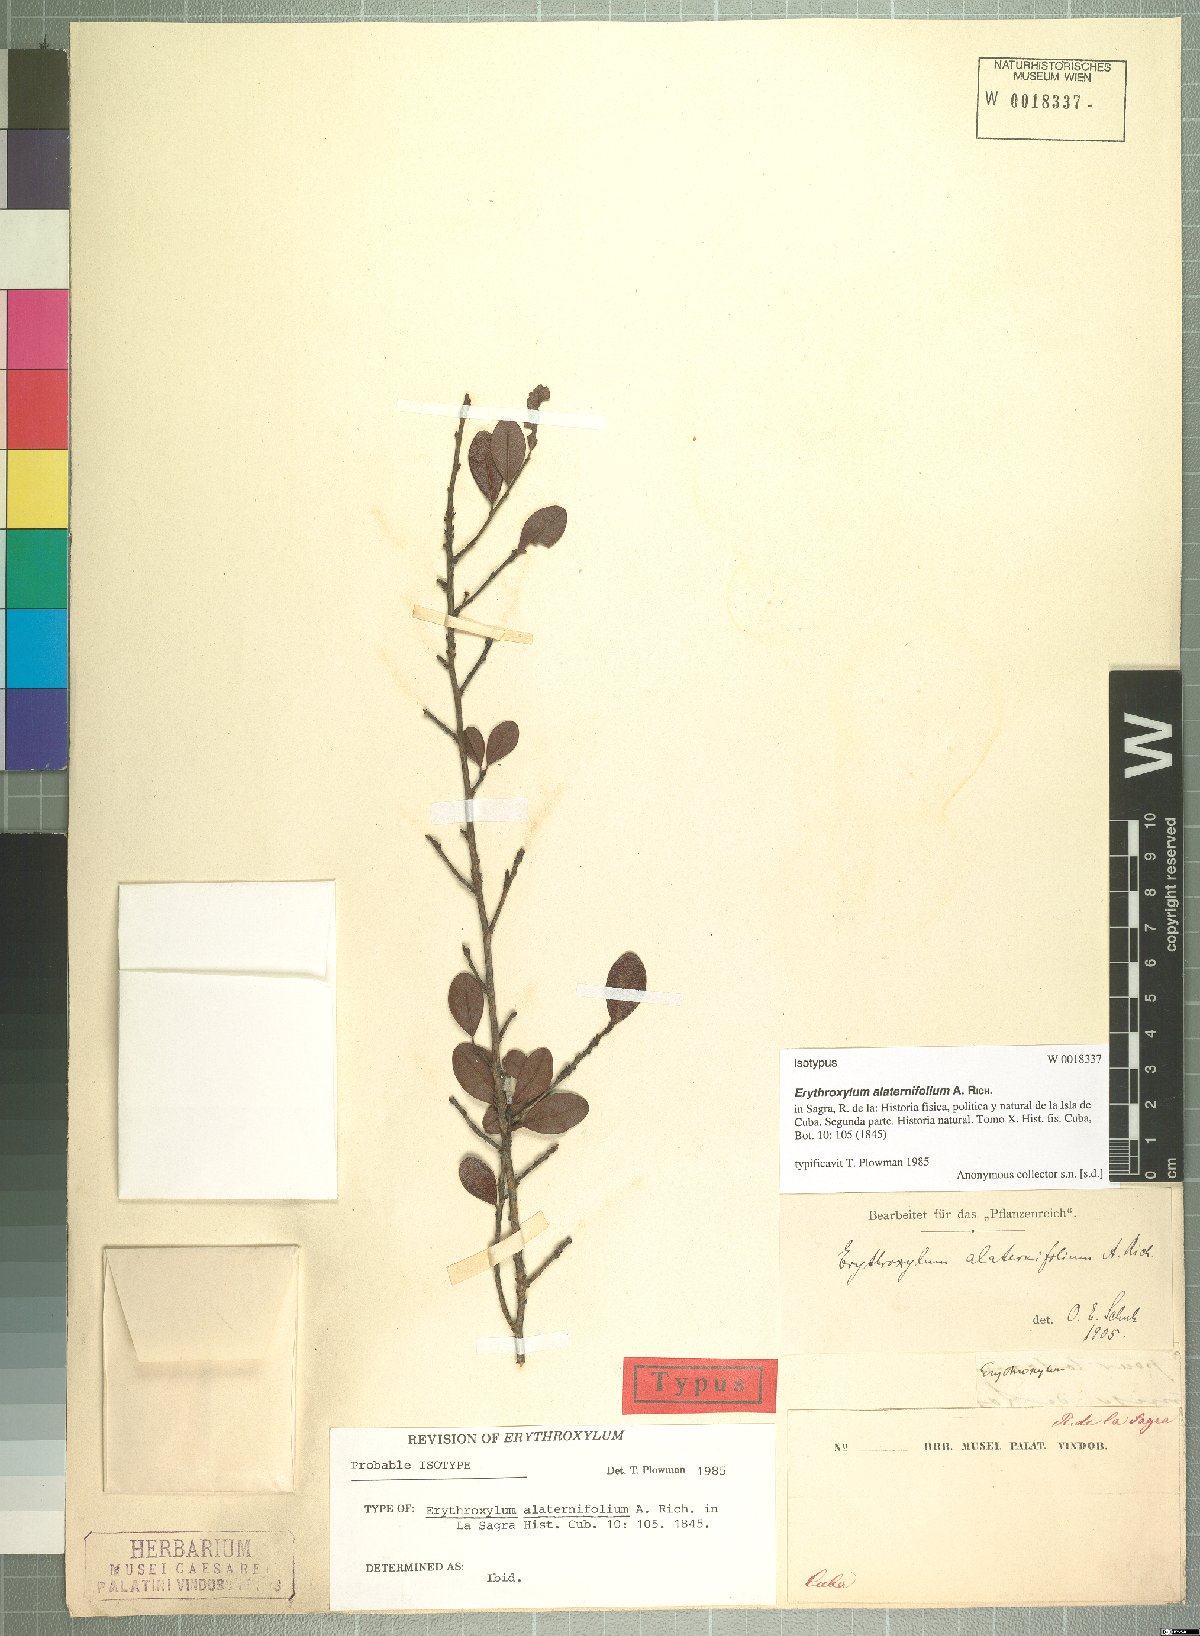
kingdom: Plantae
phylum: Tracheophyta
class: Magnoliopsida
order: Malpighiales
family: Erythroxylaceae
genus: Erythroxylum
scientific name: Erythroxylum alaternifolium
